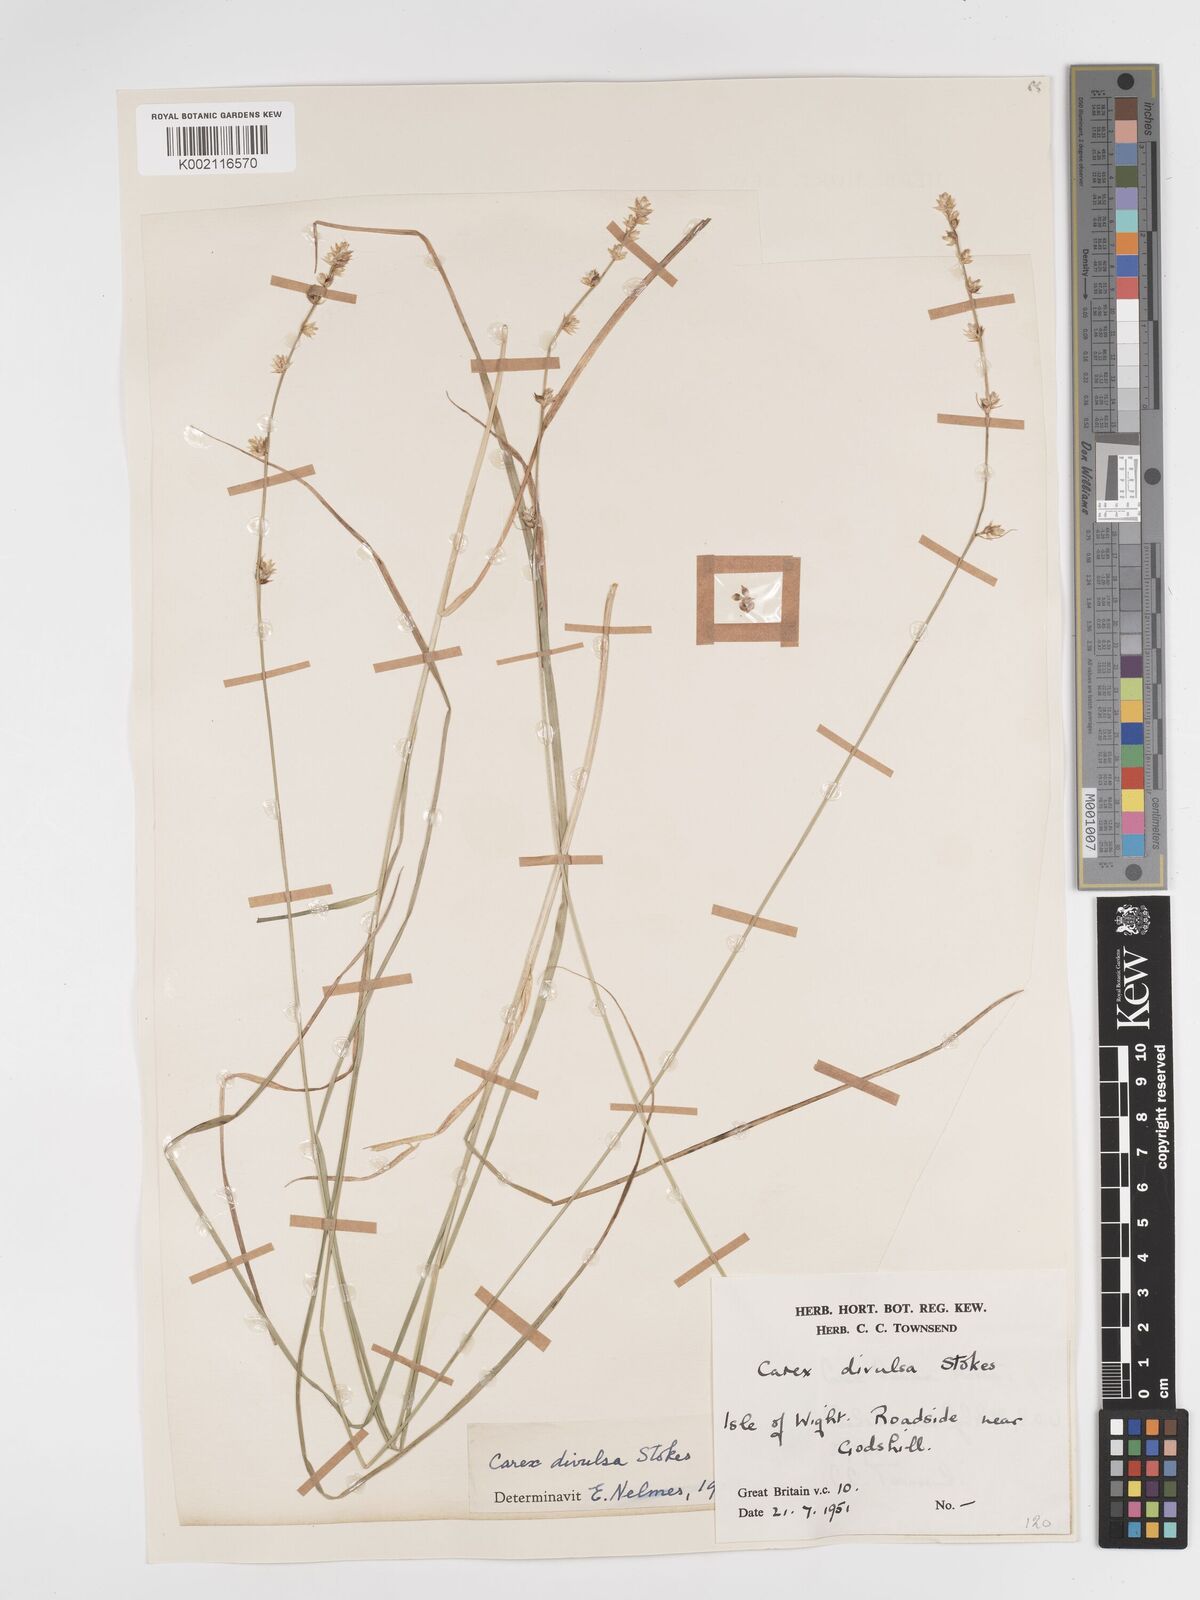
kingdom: Plantae
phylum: Tracheophyta
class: Liliopsida
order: Poales
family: Cyperaceae
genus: Carex
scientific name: Carex divulsa
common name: Grassland sedge
